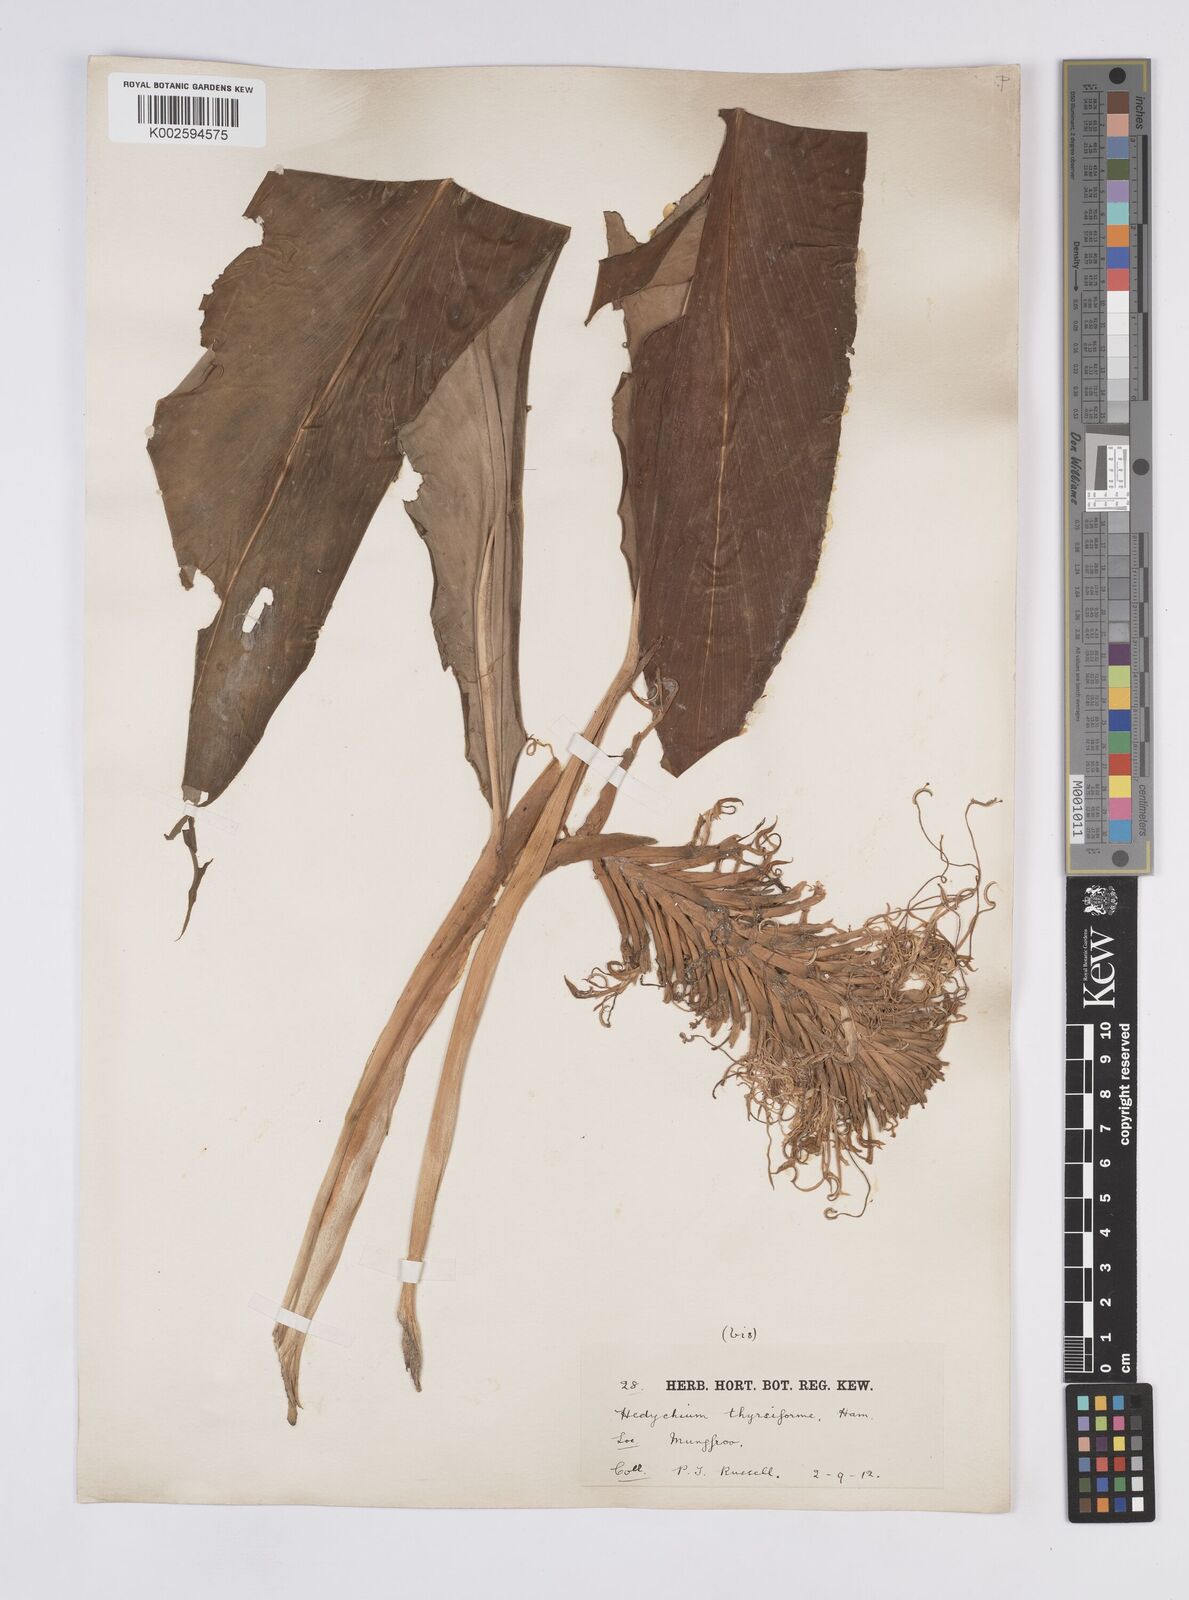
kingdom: Plantae
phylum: Tracheophyta
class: Liliopsida
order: Zingiberales
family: Zingiberaceae
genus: Hedychium
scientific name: Hedychium thyrsiforme
